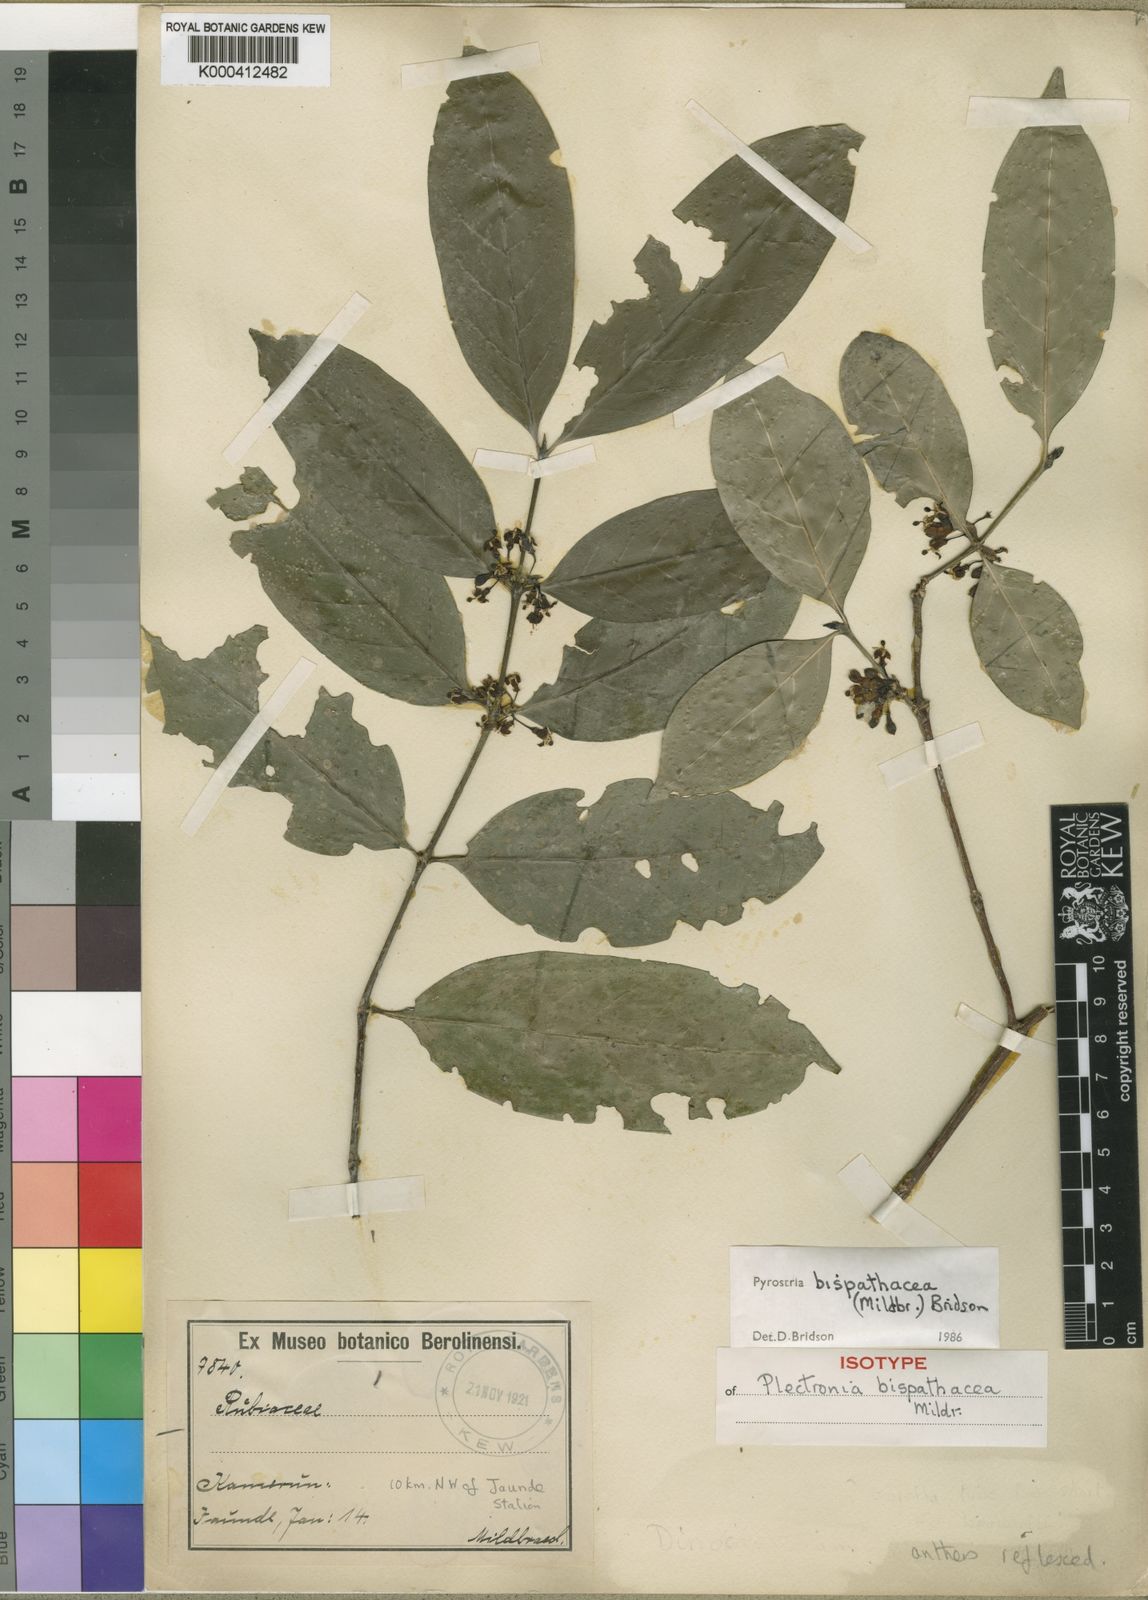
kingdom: Plantae
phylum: Tracheophyta
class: Magnoliopsida
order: Gentianales
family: Rubiaceae
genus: Pyrostria
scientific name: Pyrostria bispathacea
